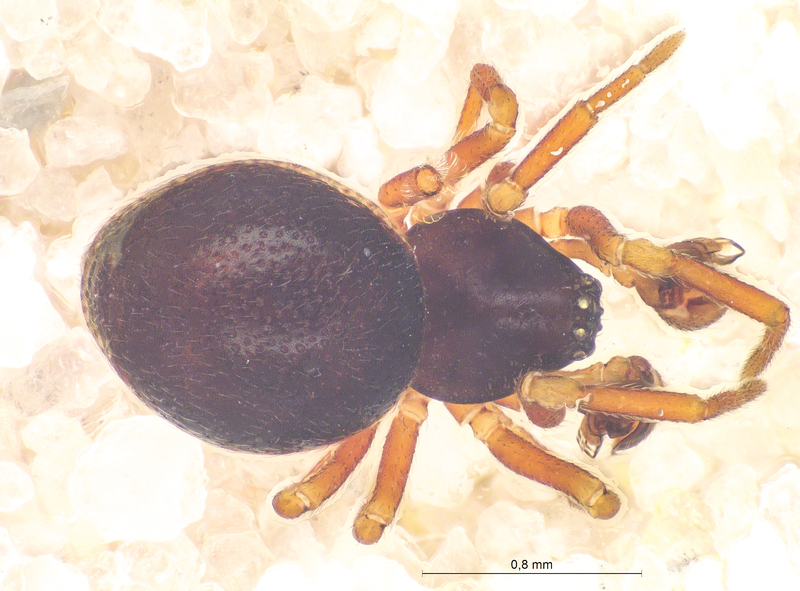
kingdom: Animalia
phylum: Arthropoda
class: Arachnida
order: Araneae
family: Linyphiidae
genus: Ceratinella
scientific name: Ceratinella brevis
